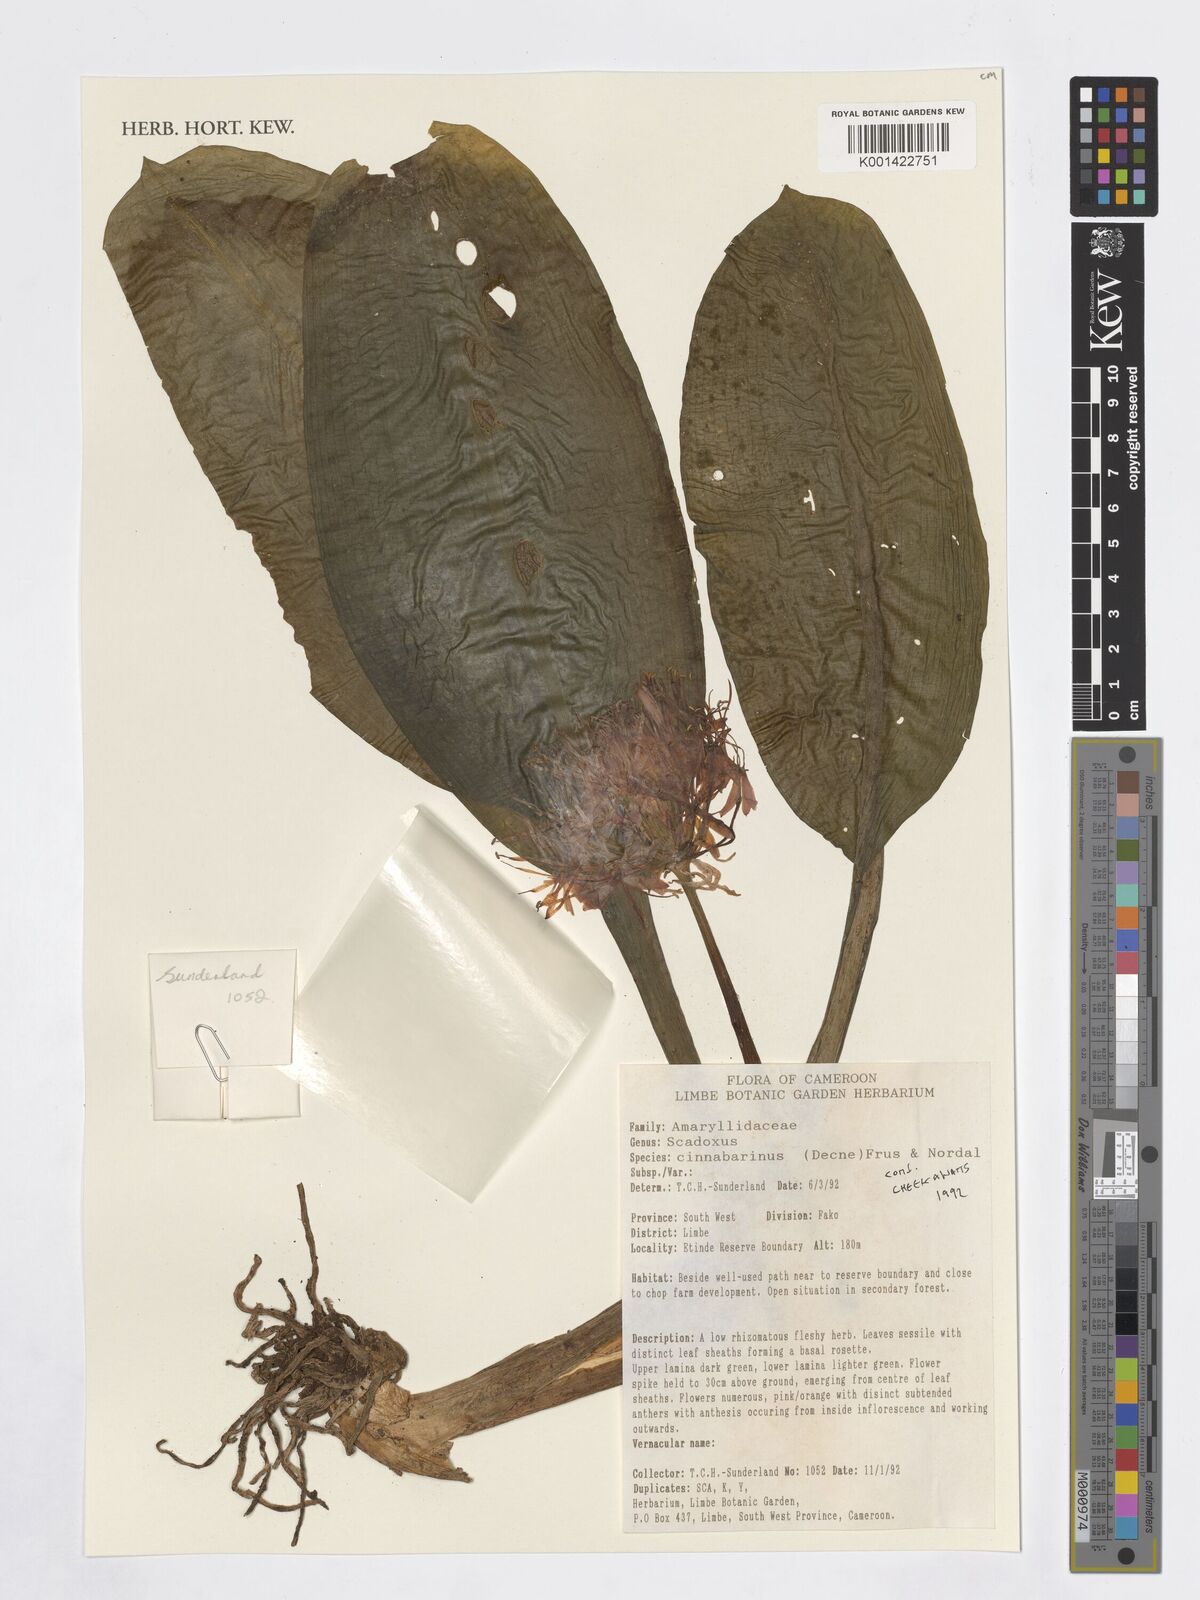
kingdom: Plantae
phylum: Tracheophyta
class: Liliopsida
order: Asparagales
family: Amaryllidaceae
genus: Scadoxus
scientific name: Scadoxus cinnabarinus
